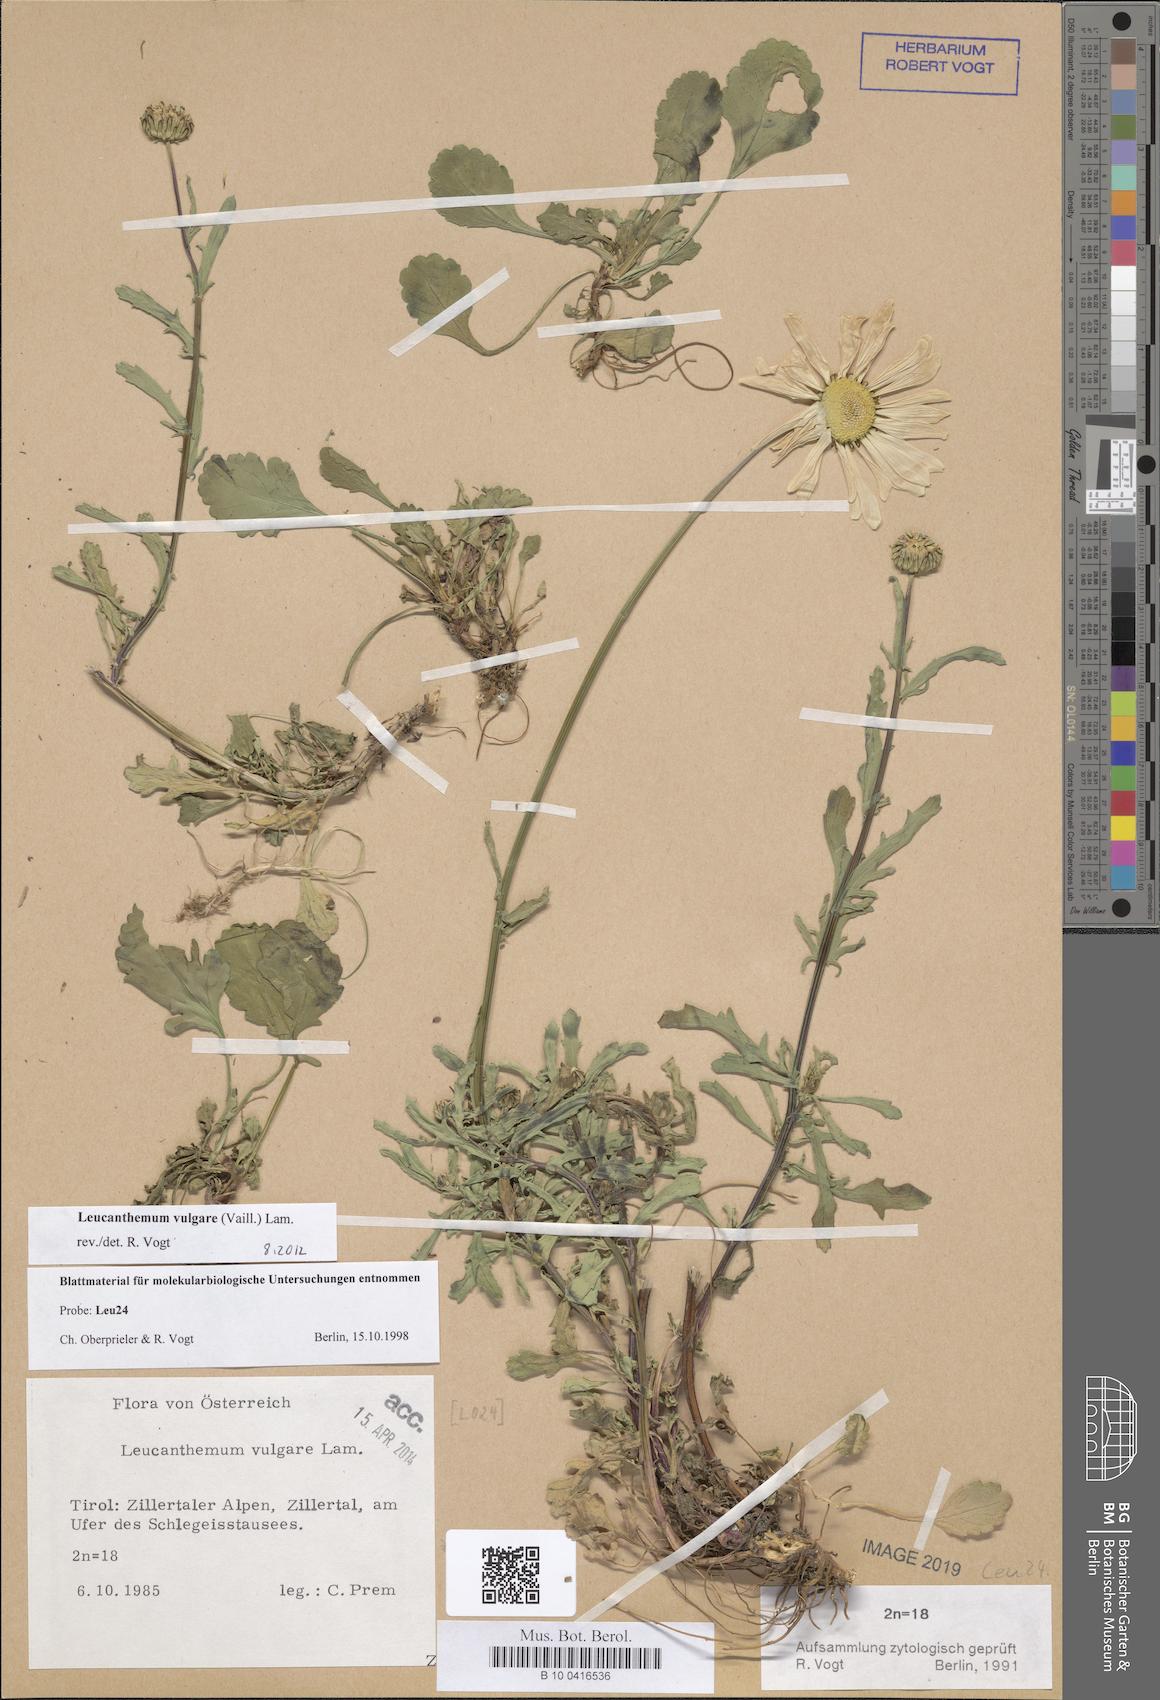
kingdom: Plantae
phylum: Tracheophyta
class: Magnoliopsida
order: Asterales
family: Asteraceae
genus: Leucanthemum
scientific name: Leucanthemum vulgare
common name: Oxeye daisy
